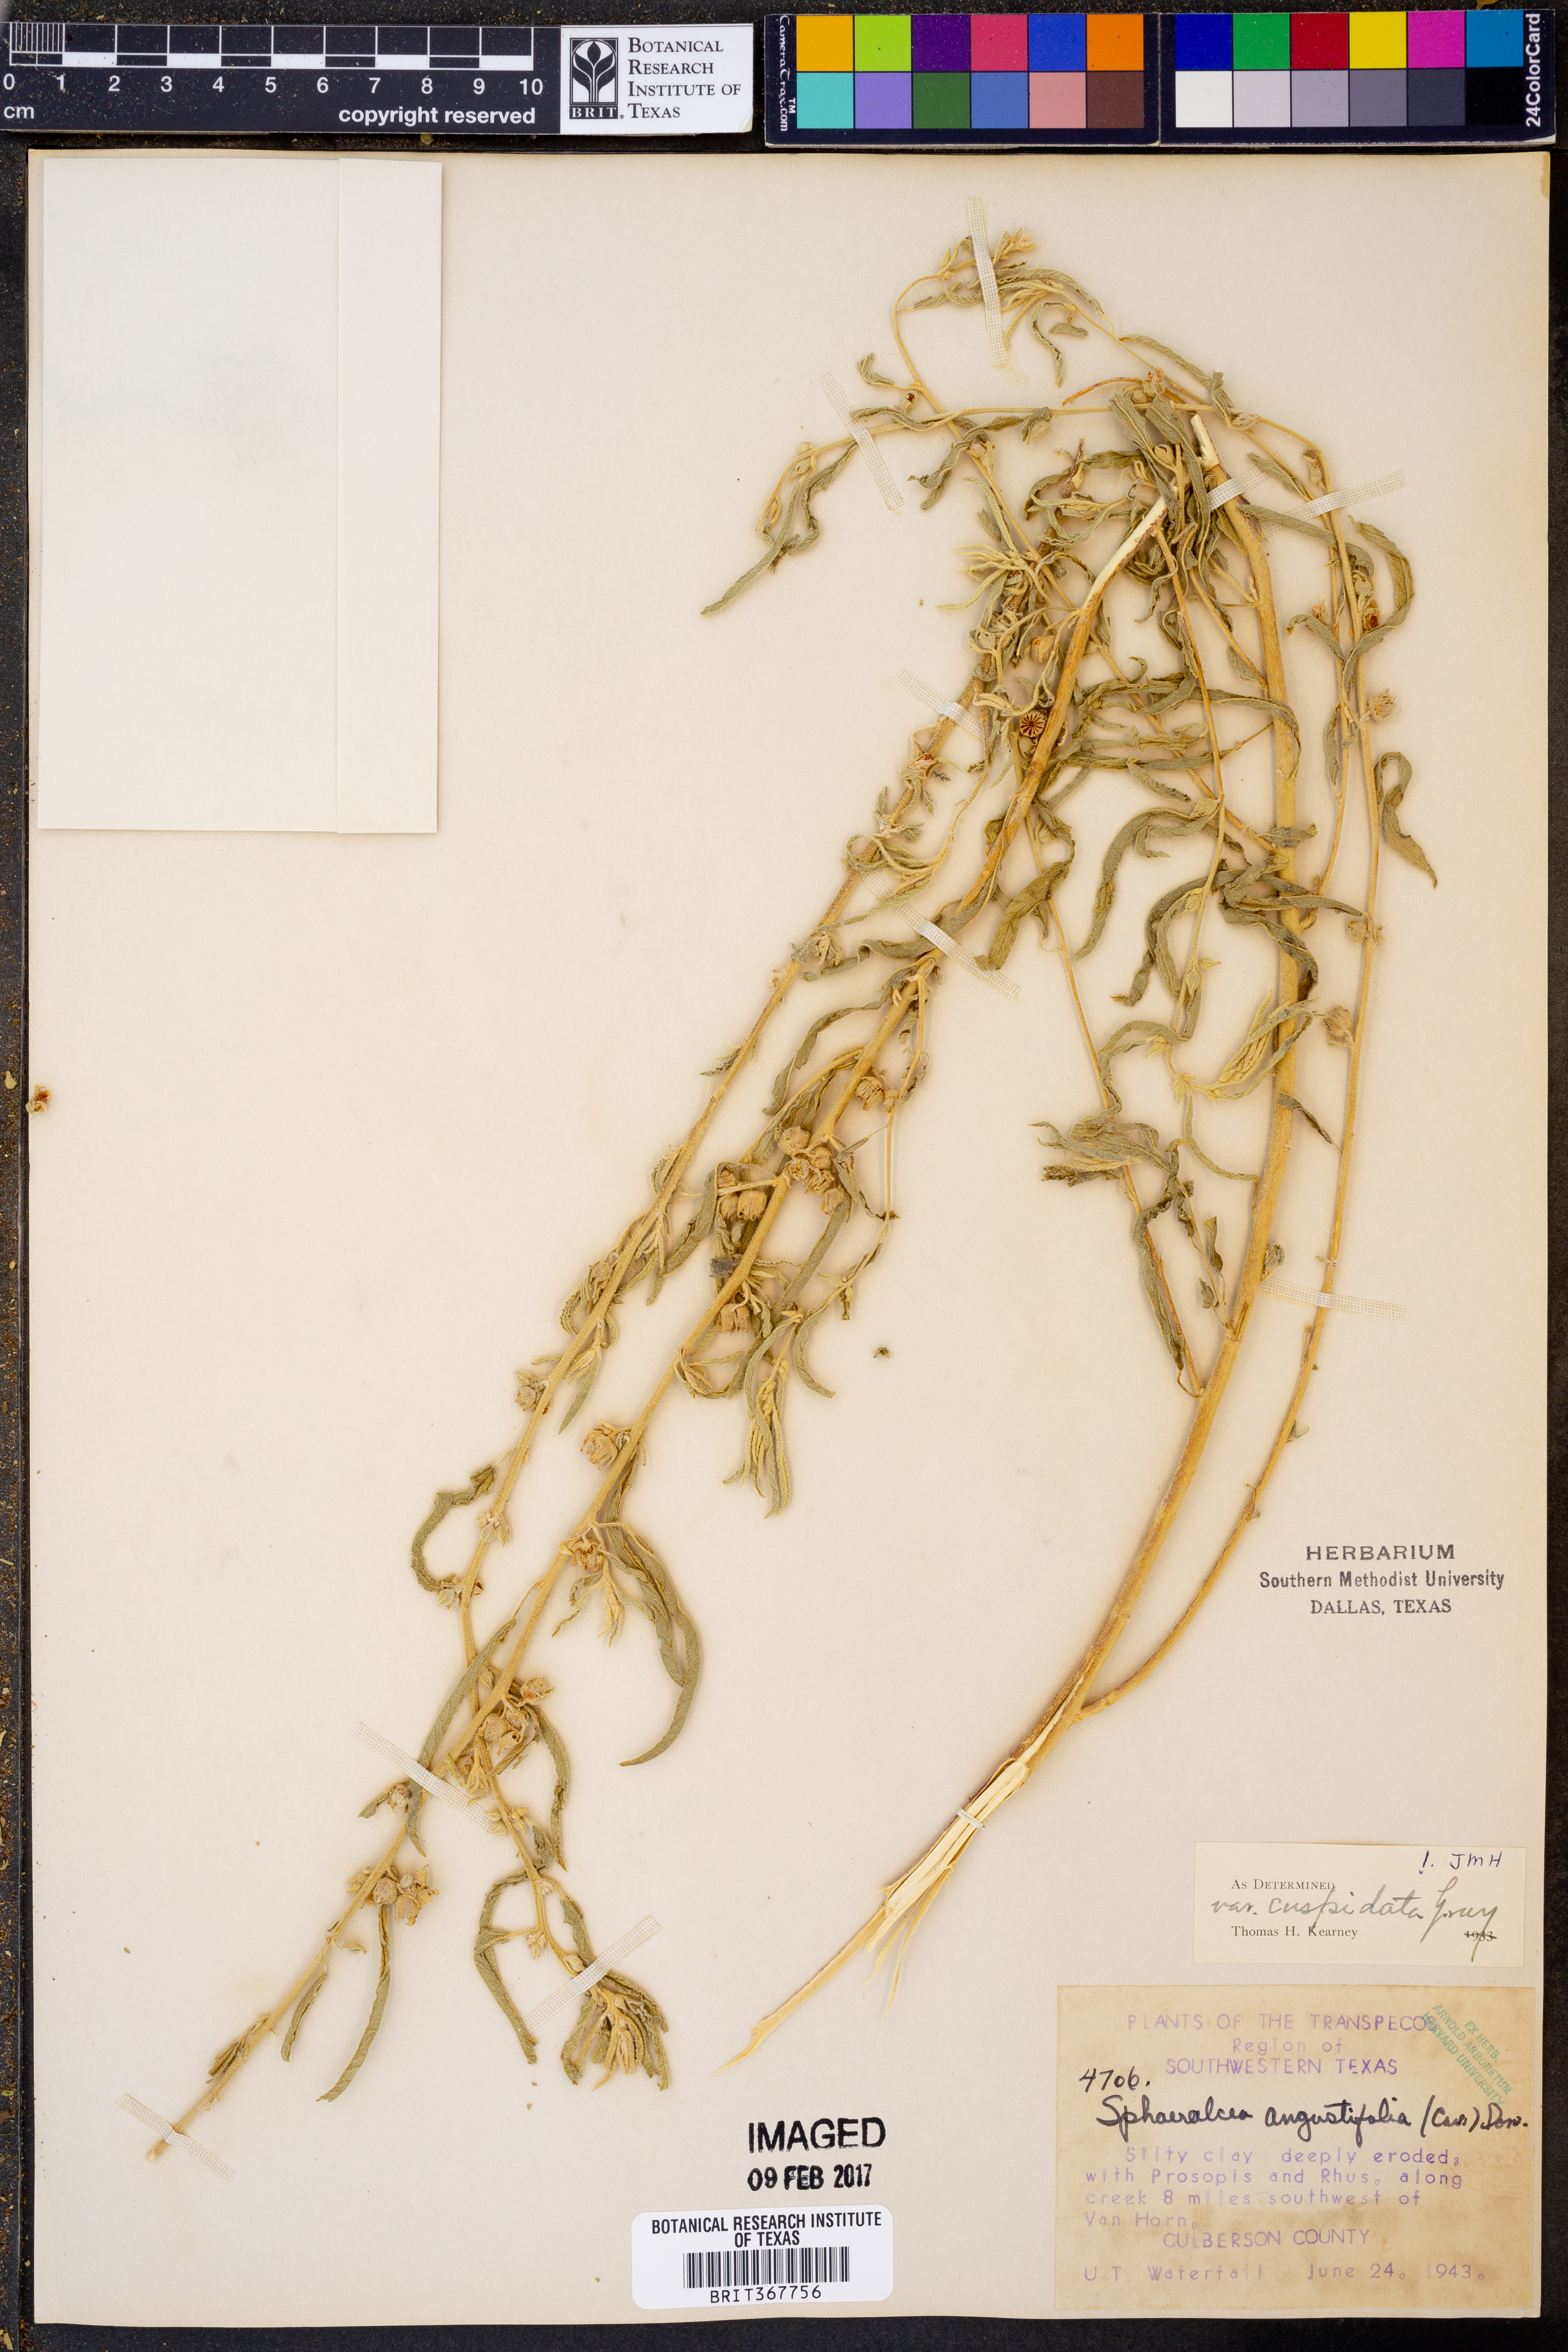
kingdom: Plantae
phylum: Tracheophyta
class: Magnoliopsida
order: Malvales
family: Malvaceae
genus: Sphaeralcea
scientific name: Sphaeralcea angustifolia
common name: Copper globe-mallow
